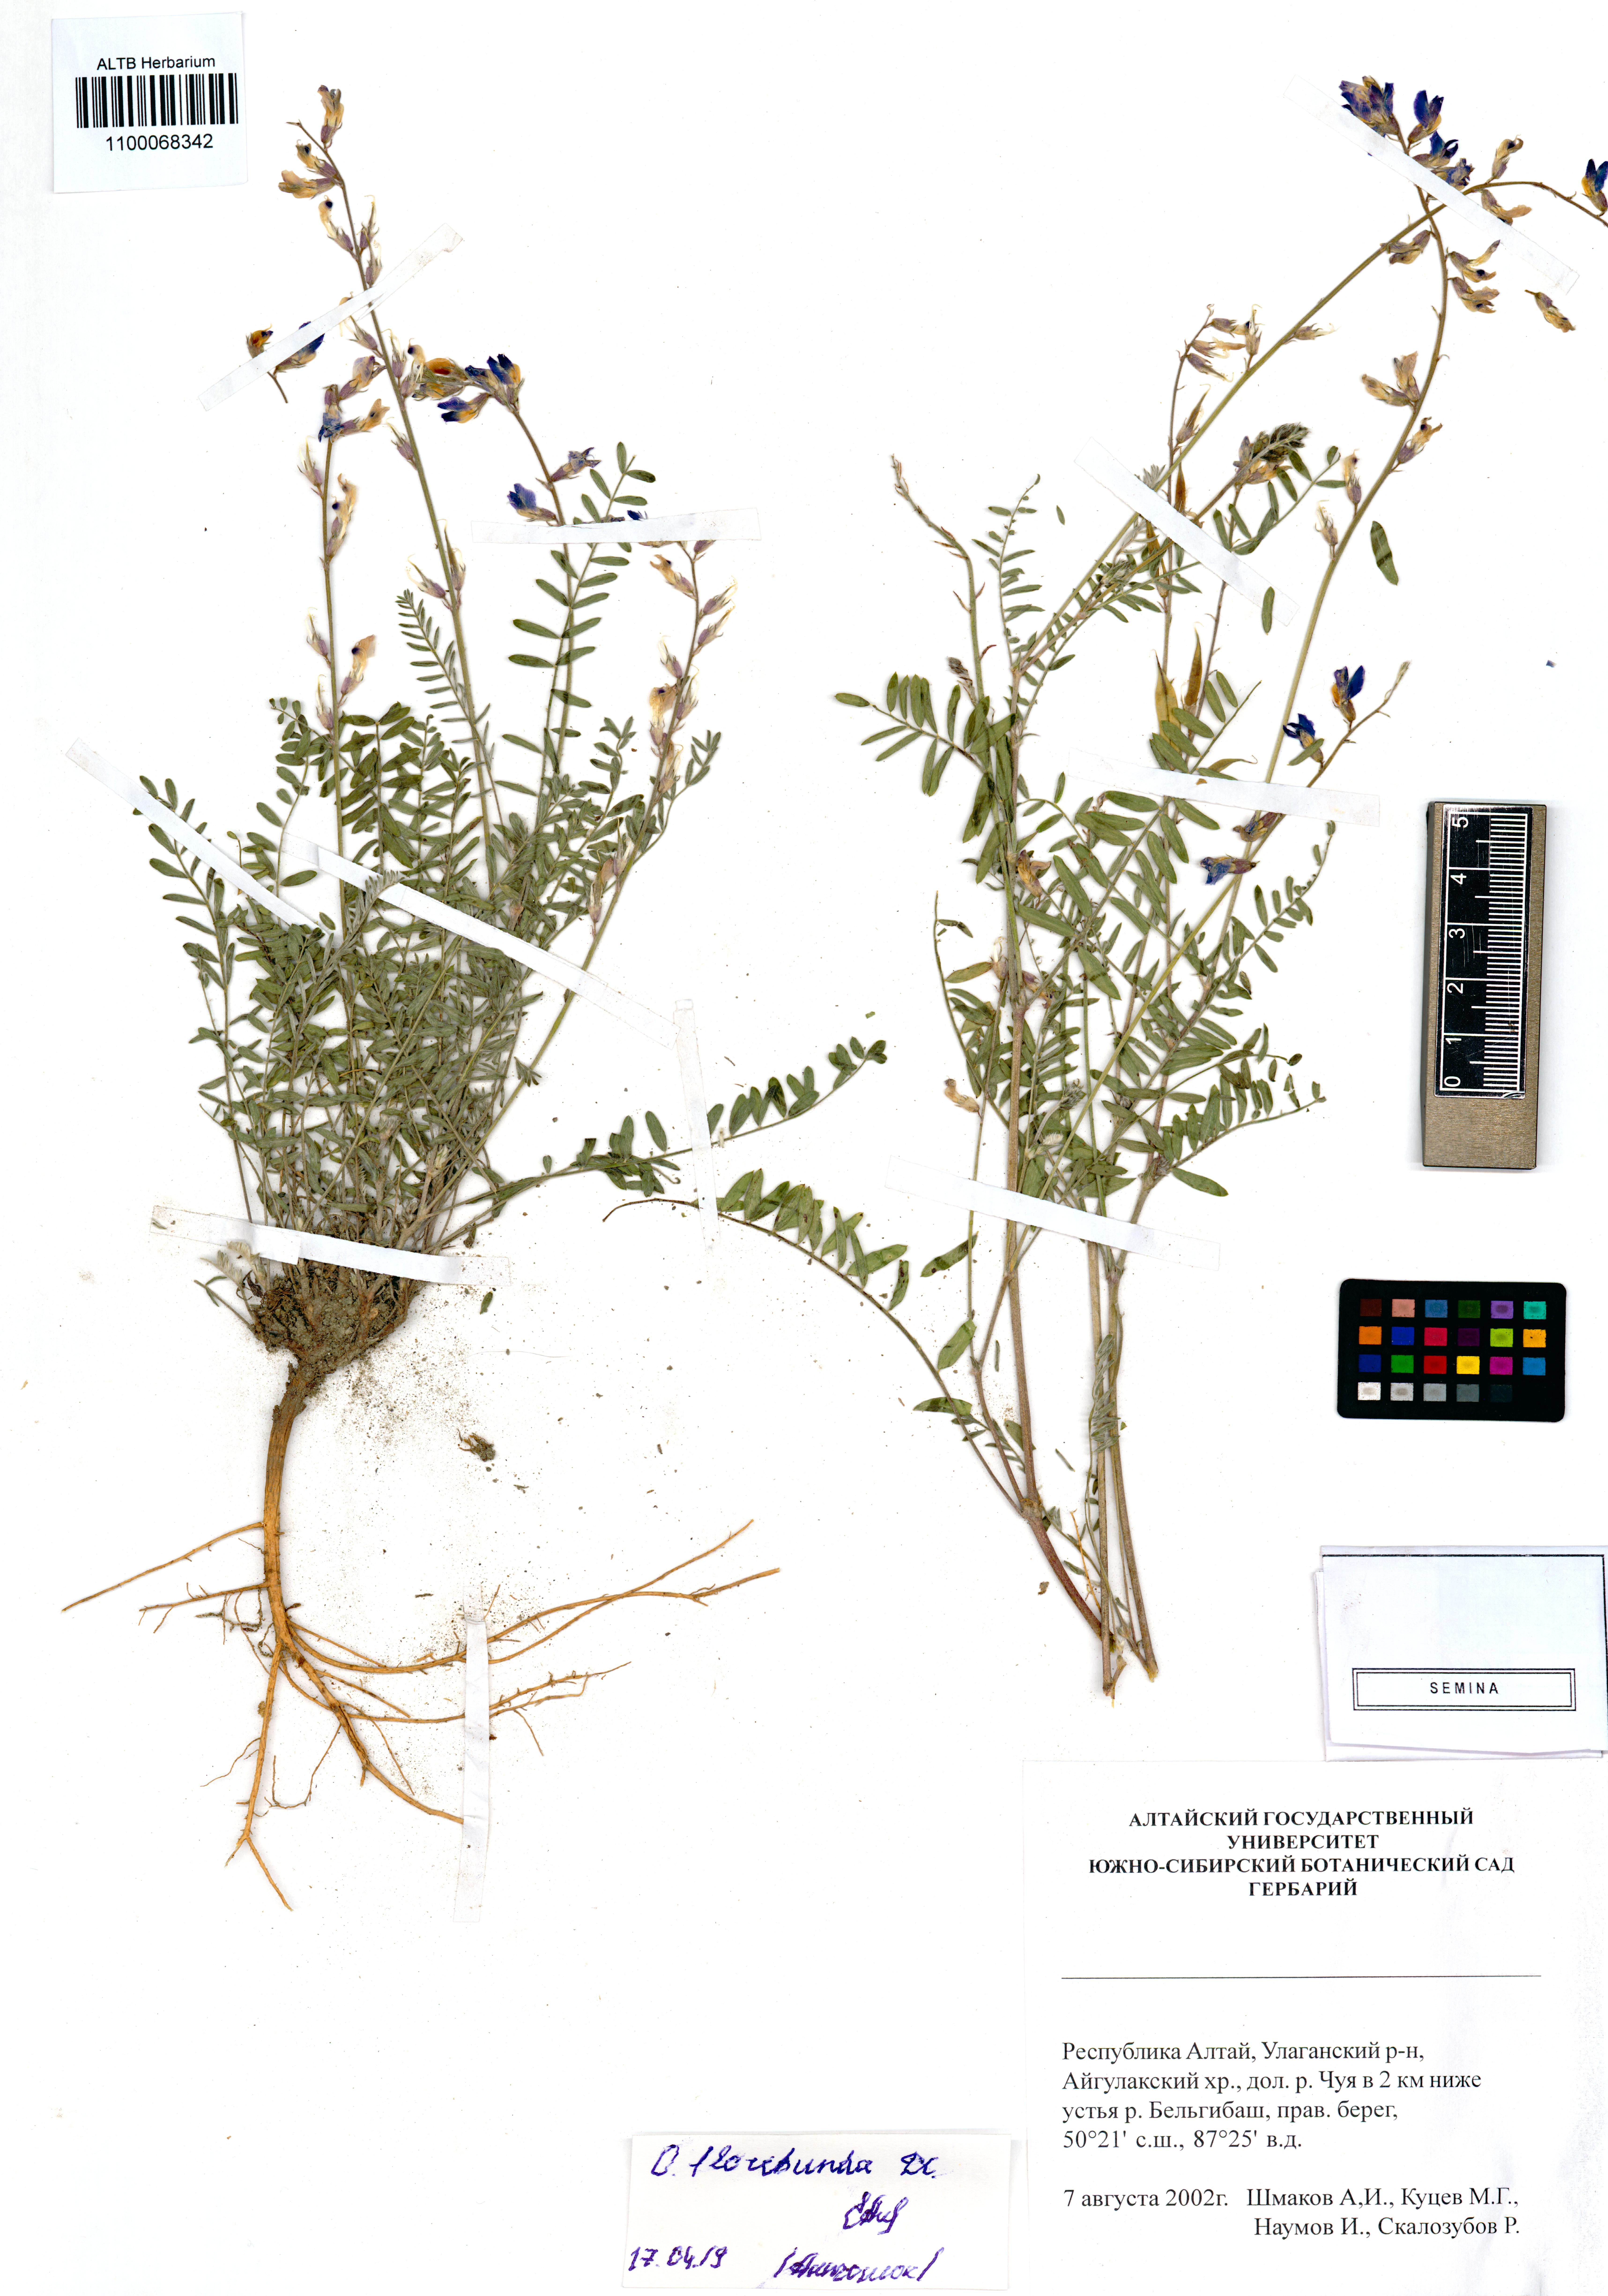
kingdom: Plantae
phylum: Tracheophyta
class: Magnoliopsida
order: Fabales
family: Fabaceae
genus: Oxytropis
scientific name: Oxytropis floribunda
